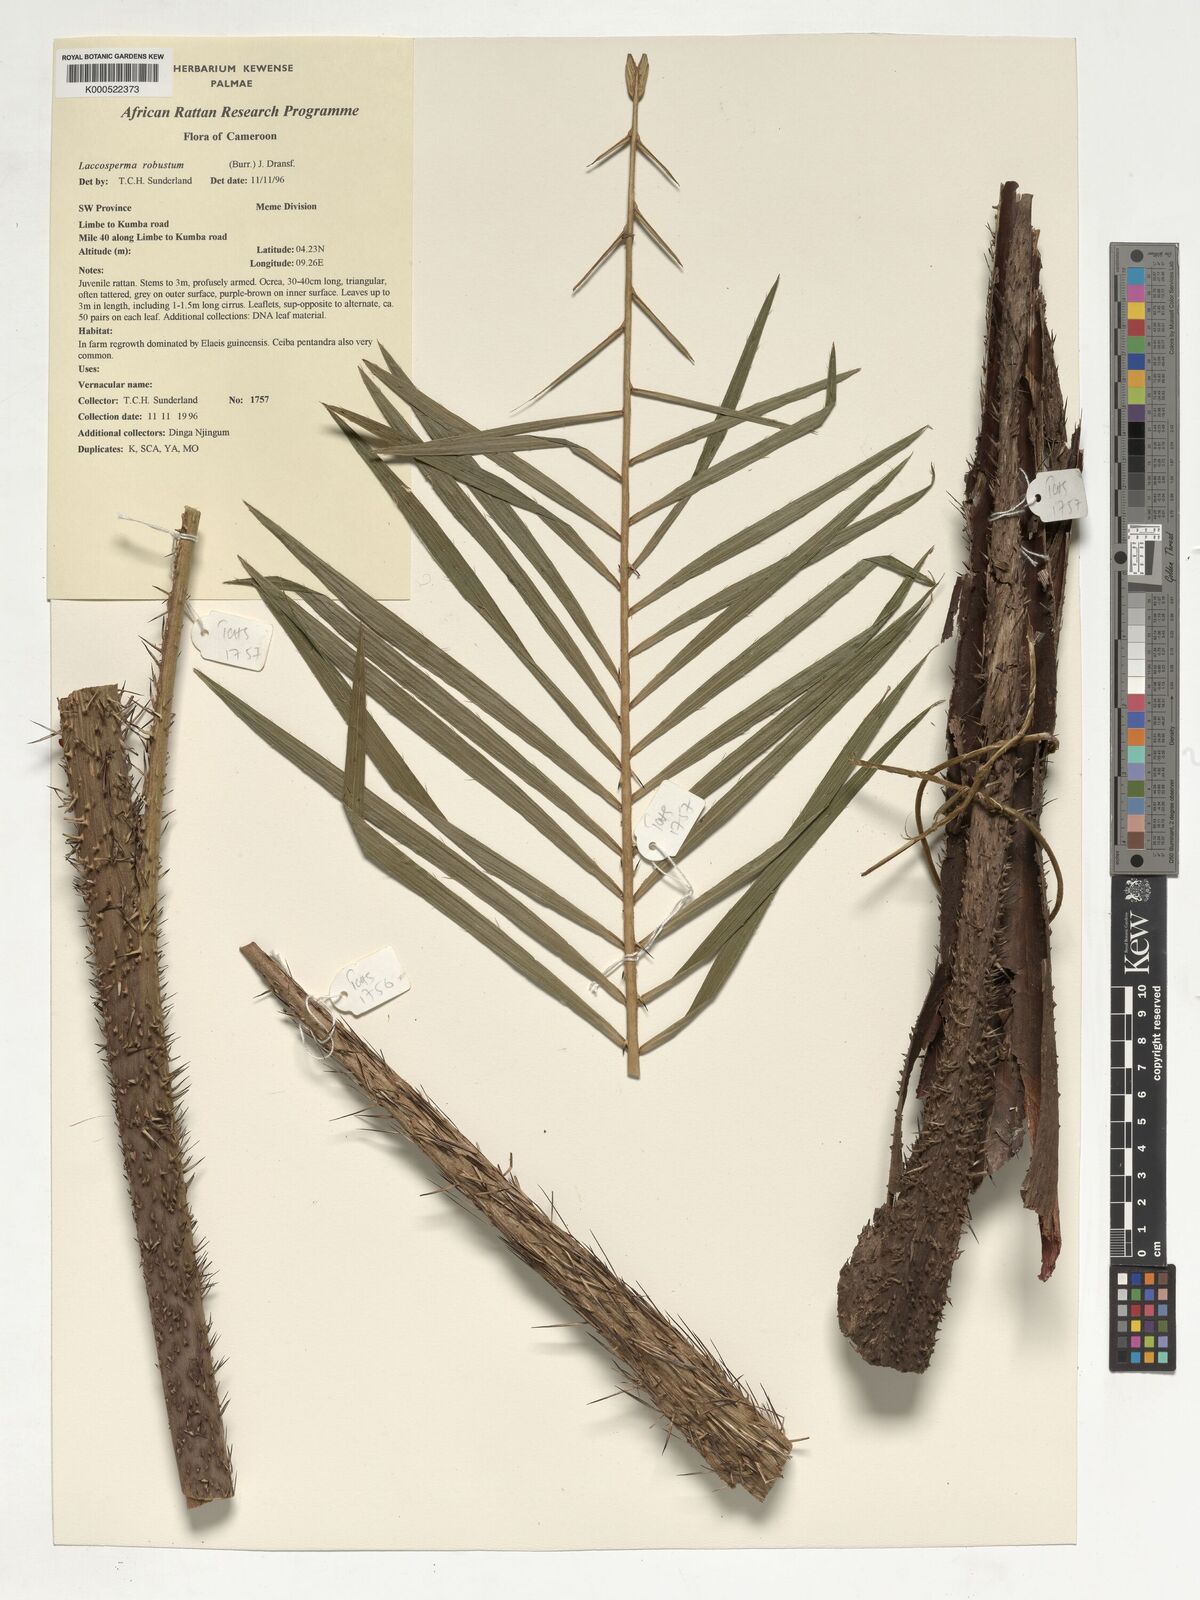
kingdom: Plantae
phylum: Tracheophyta
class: Liliopsida
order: Arecales
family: Arecaceae
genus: Laccosperma
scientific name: Laccosperma robustum
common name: Rattan
